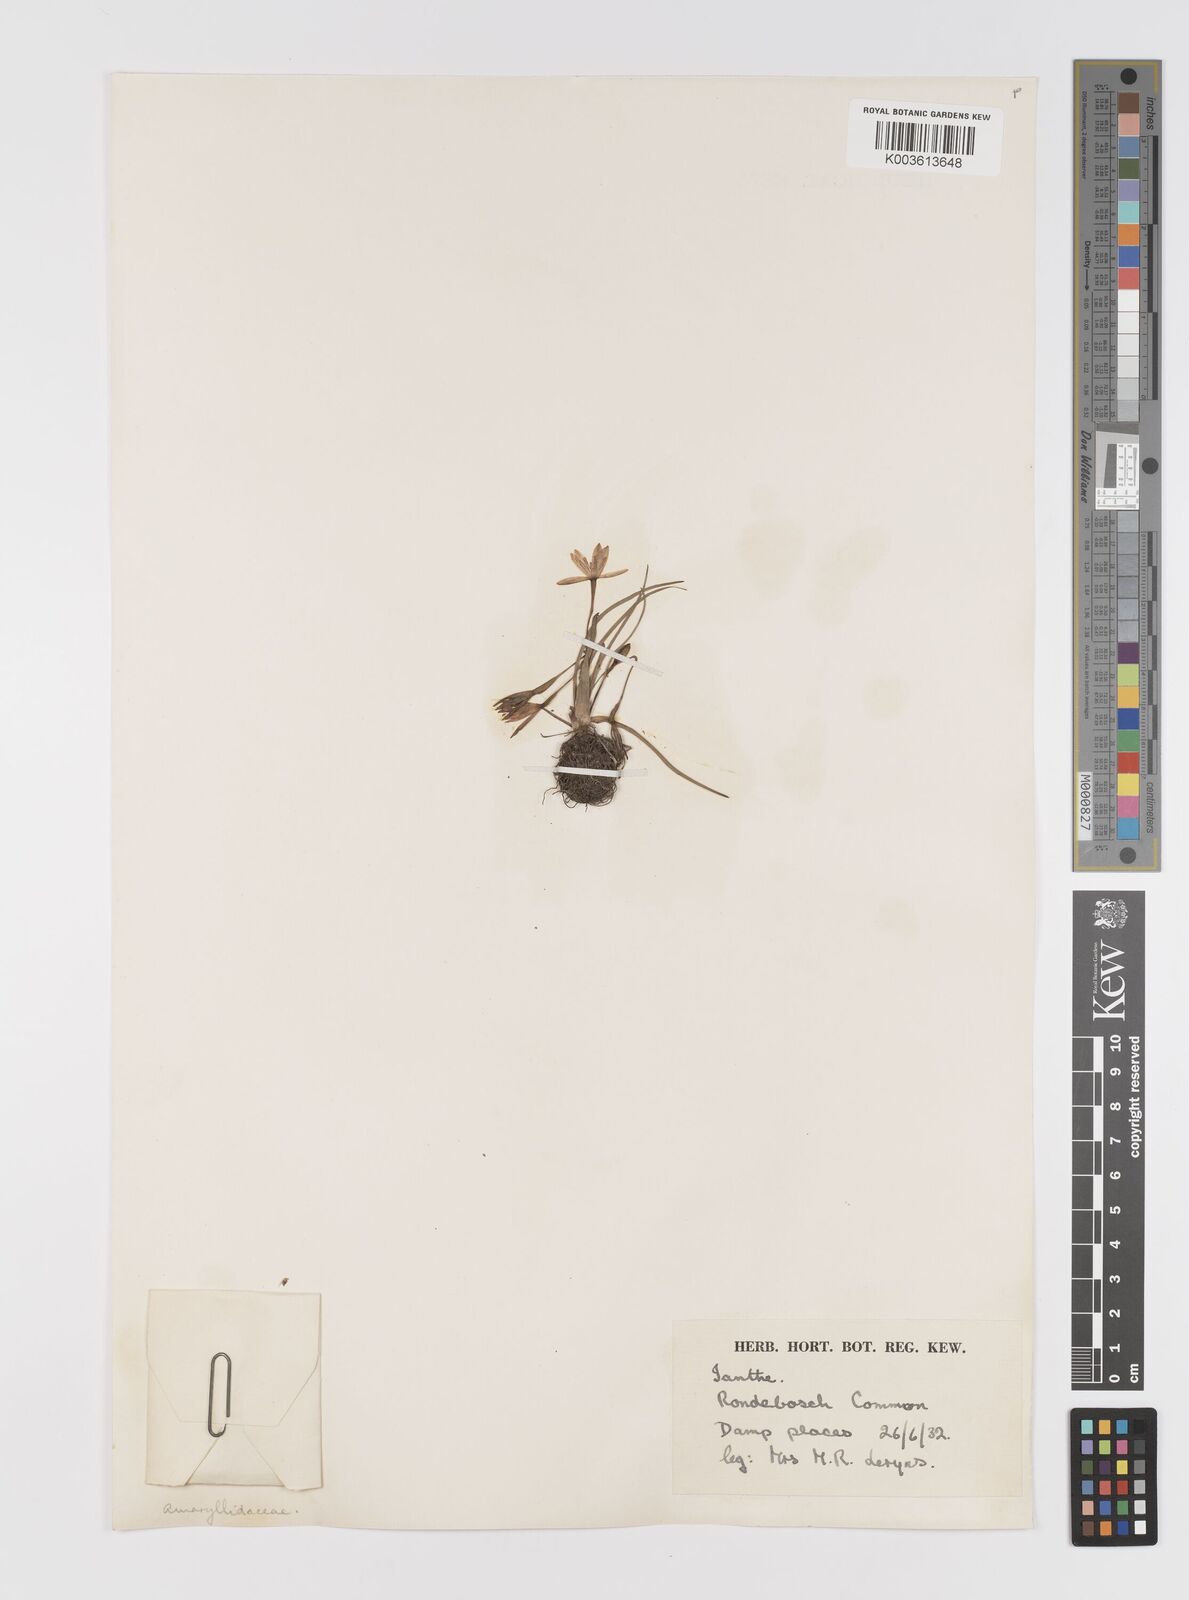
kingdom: Plantae
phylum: Tracheophyta
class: Liliopsida
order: Asparagales
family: Hypoxidaceae
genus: Pauridia
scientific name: Pauridia
